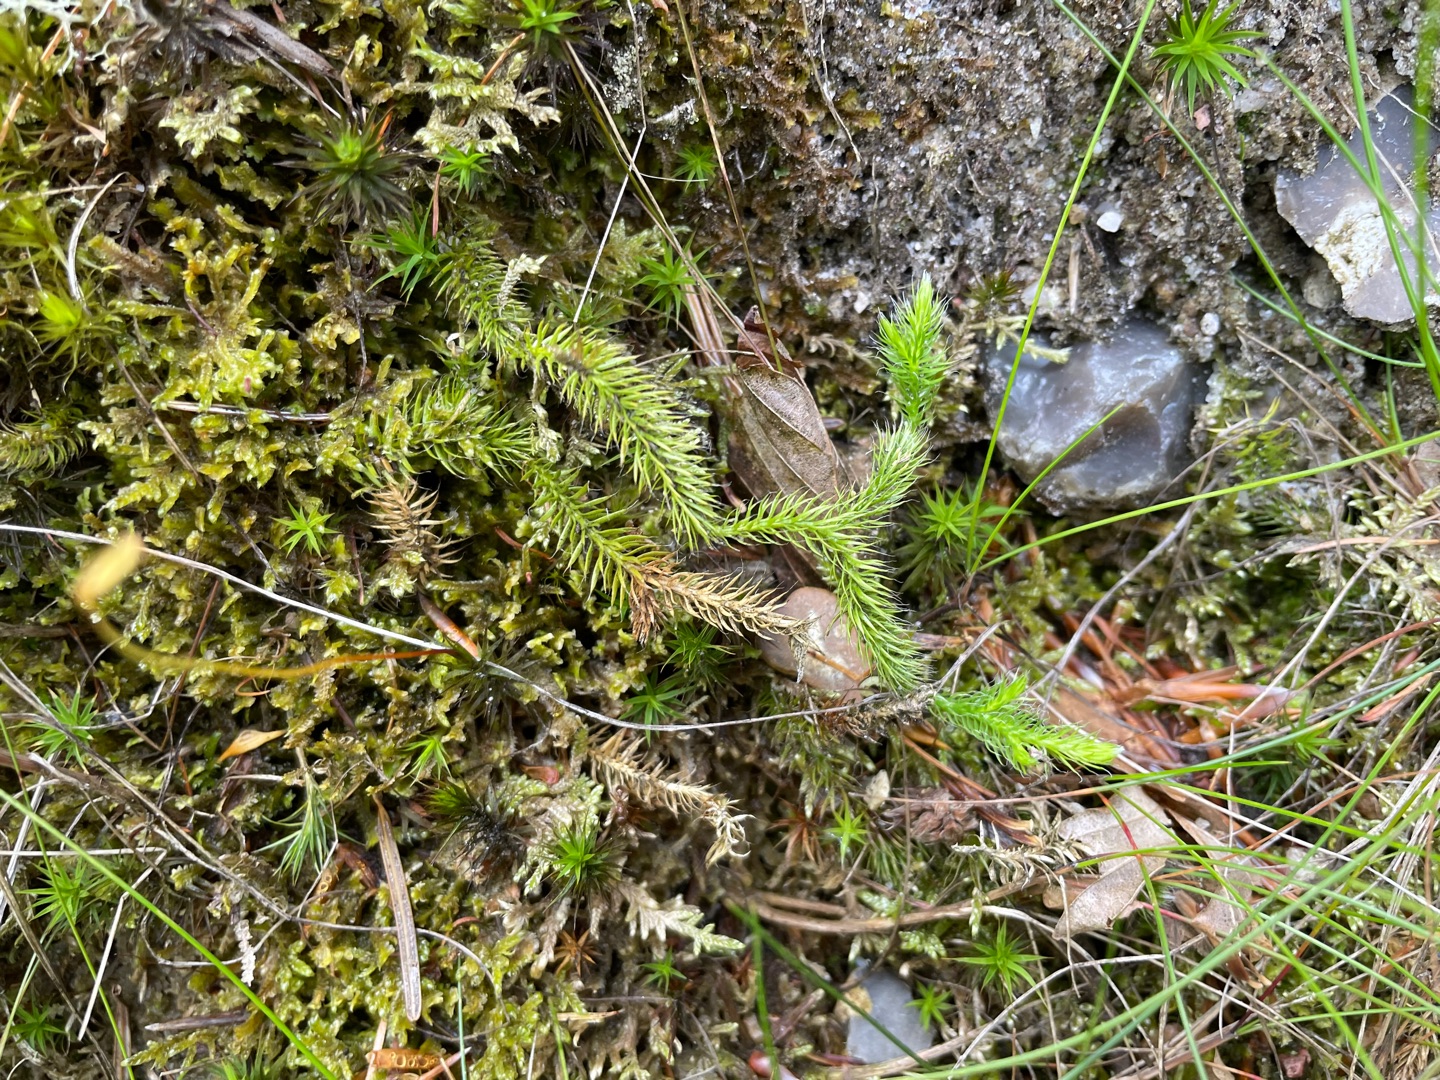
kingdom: Plantae
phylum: Tracheophyta
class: Lycopodiopsida
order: Lycopodiales
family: Lycopodiaceae
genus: Lycopodium
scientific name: Lycopodium clavatum
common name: Almindelig ulvefod
